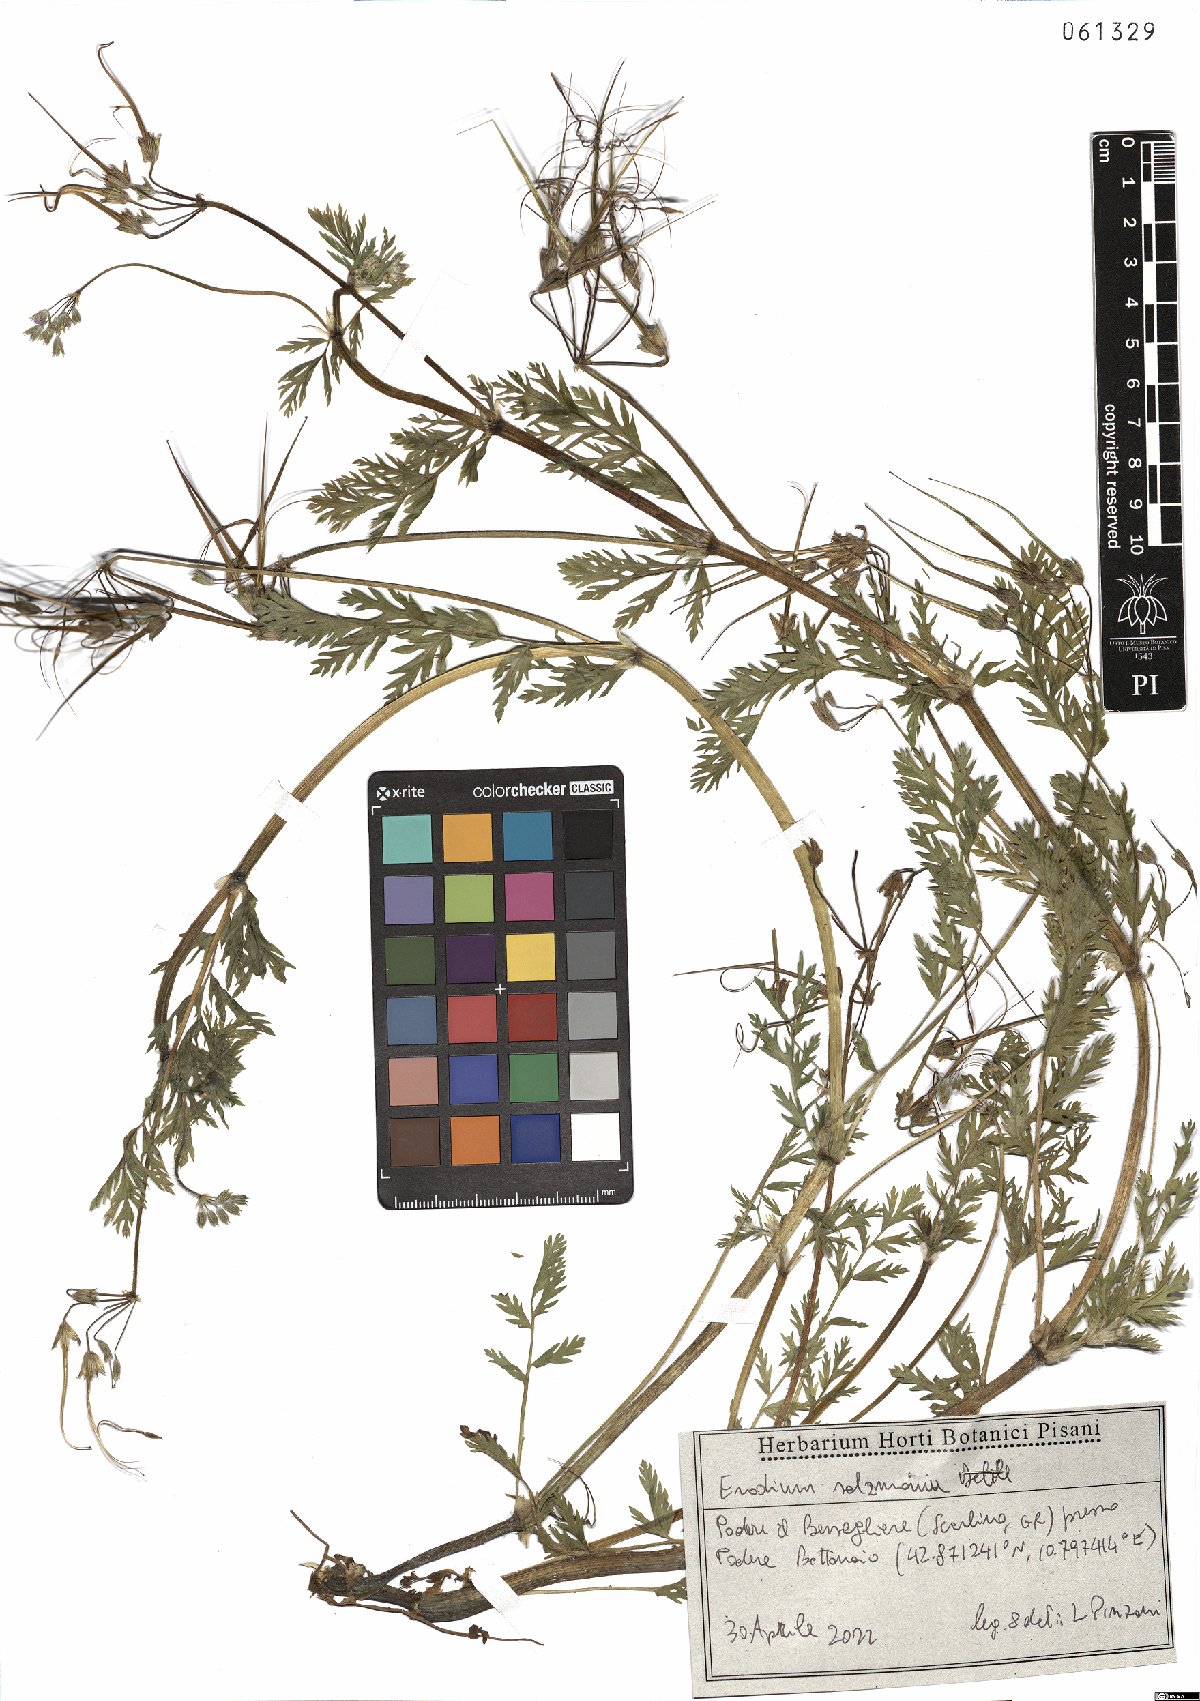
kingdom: Plantae
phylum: Tracheophyta
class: Magnoliopsida
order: Geraniales
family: Geraniaceae
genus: Erodium
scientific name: Erodium salzmannii
